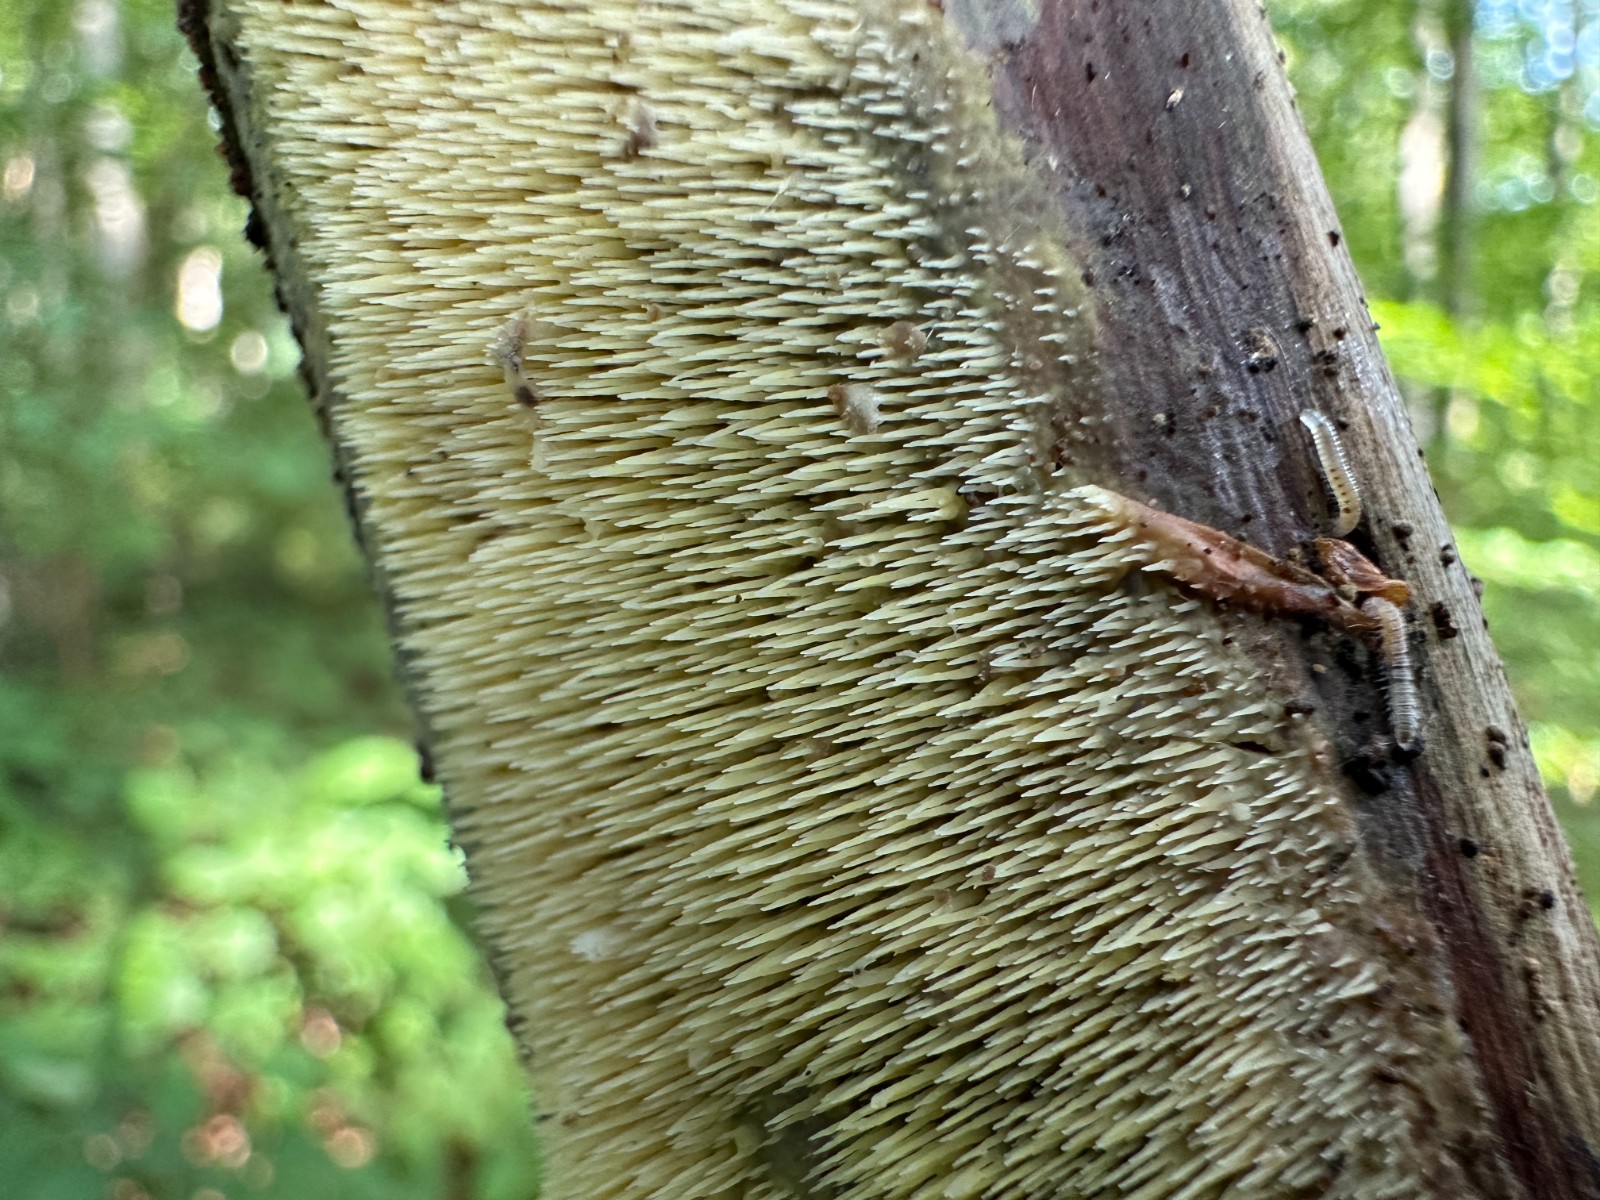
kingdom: Fungi
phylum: Basidiomycota
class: Agaricomycetes
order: Polyporales
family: Meruliaceae
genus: Mycoacia
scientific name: Mycoacia uda
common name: citrongul vokspig
